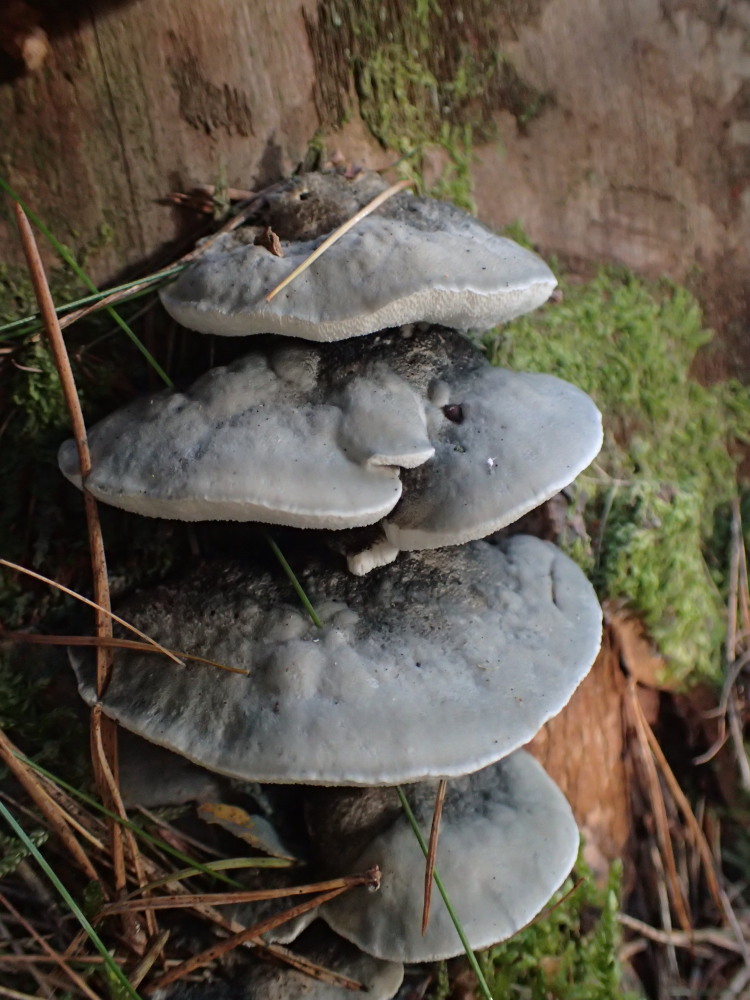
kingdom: Fungi
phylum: Basidiomycota
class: Agaricomycetes
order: Polyporales
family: Polyporaceae
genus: Cyanosporus
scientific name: Cyanosporus caesius
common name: blålig kødporesvamp
